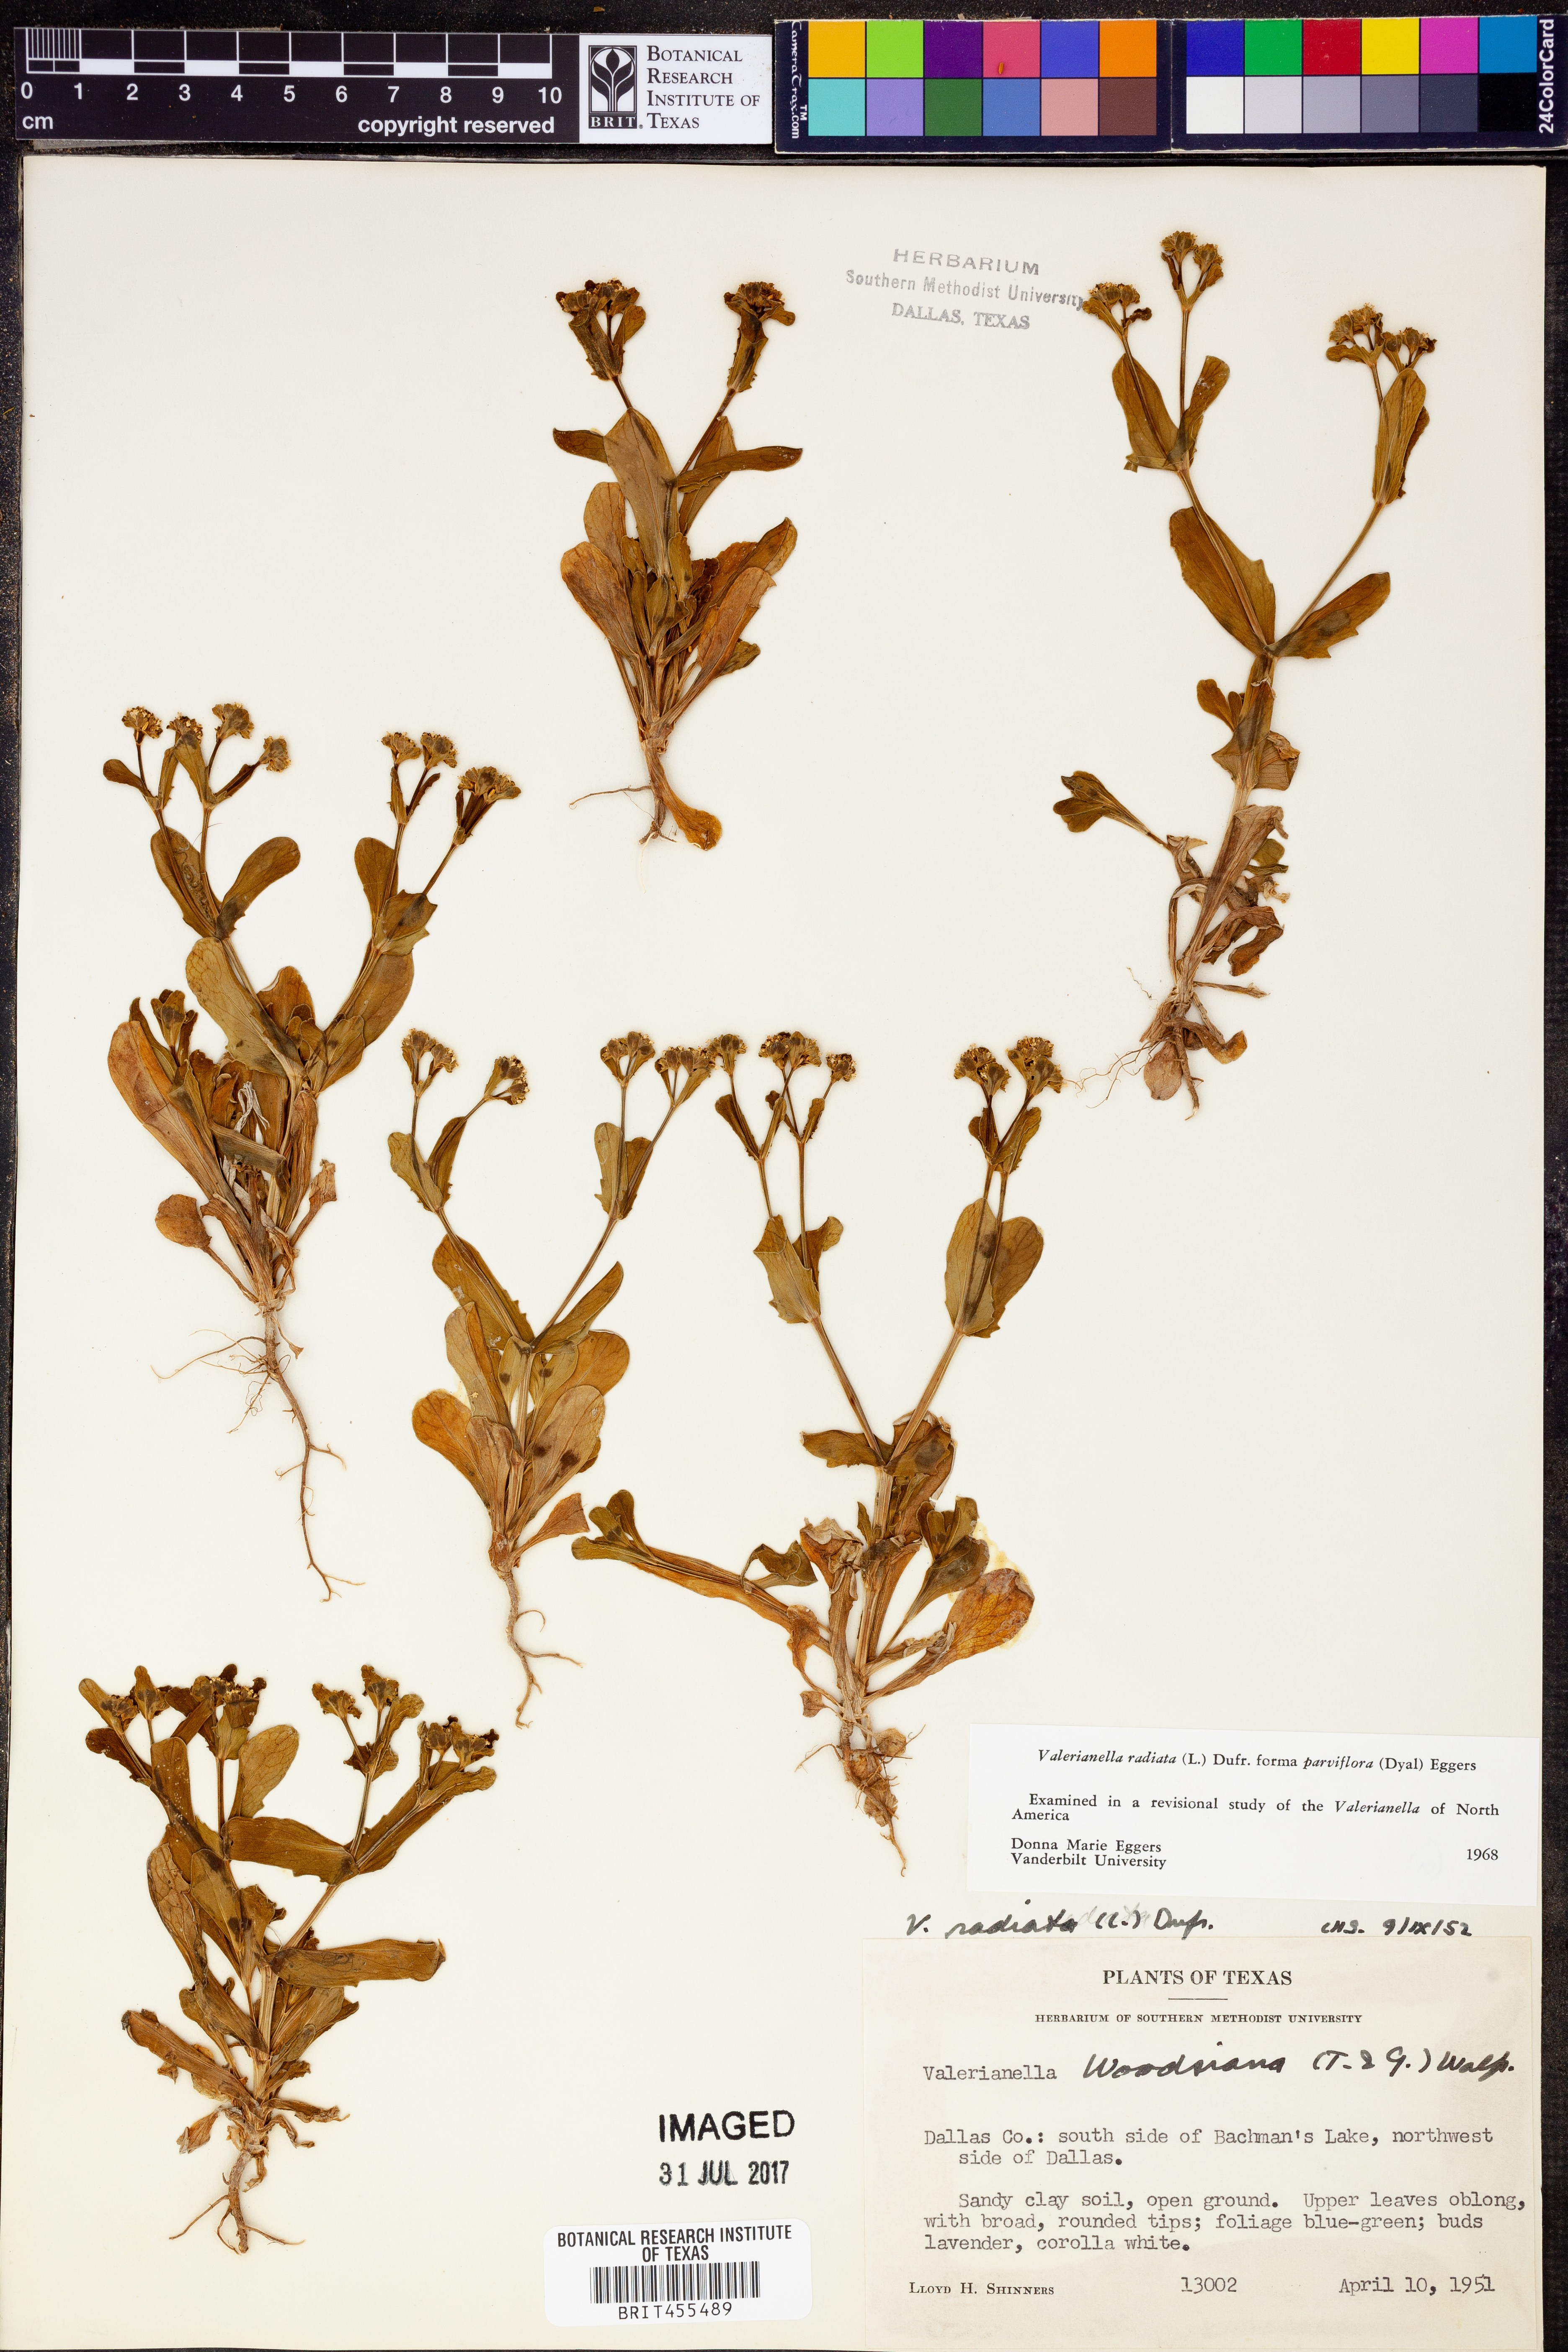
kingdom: Plantae
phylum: Tracheophyta
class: Magnoliopsida
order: Dipsacales
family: Caprifoliaceae
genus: Valerianella
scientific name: Valerianella radiata
